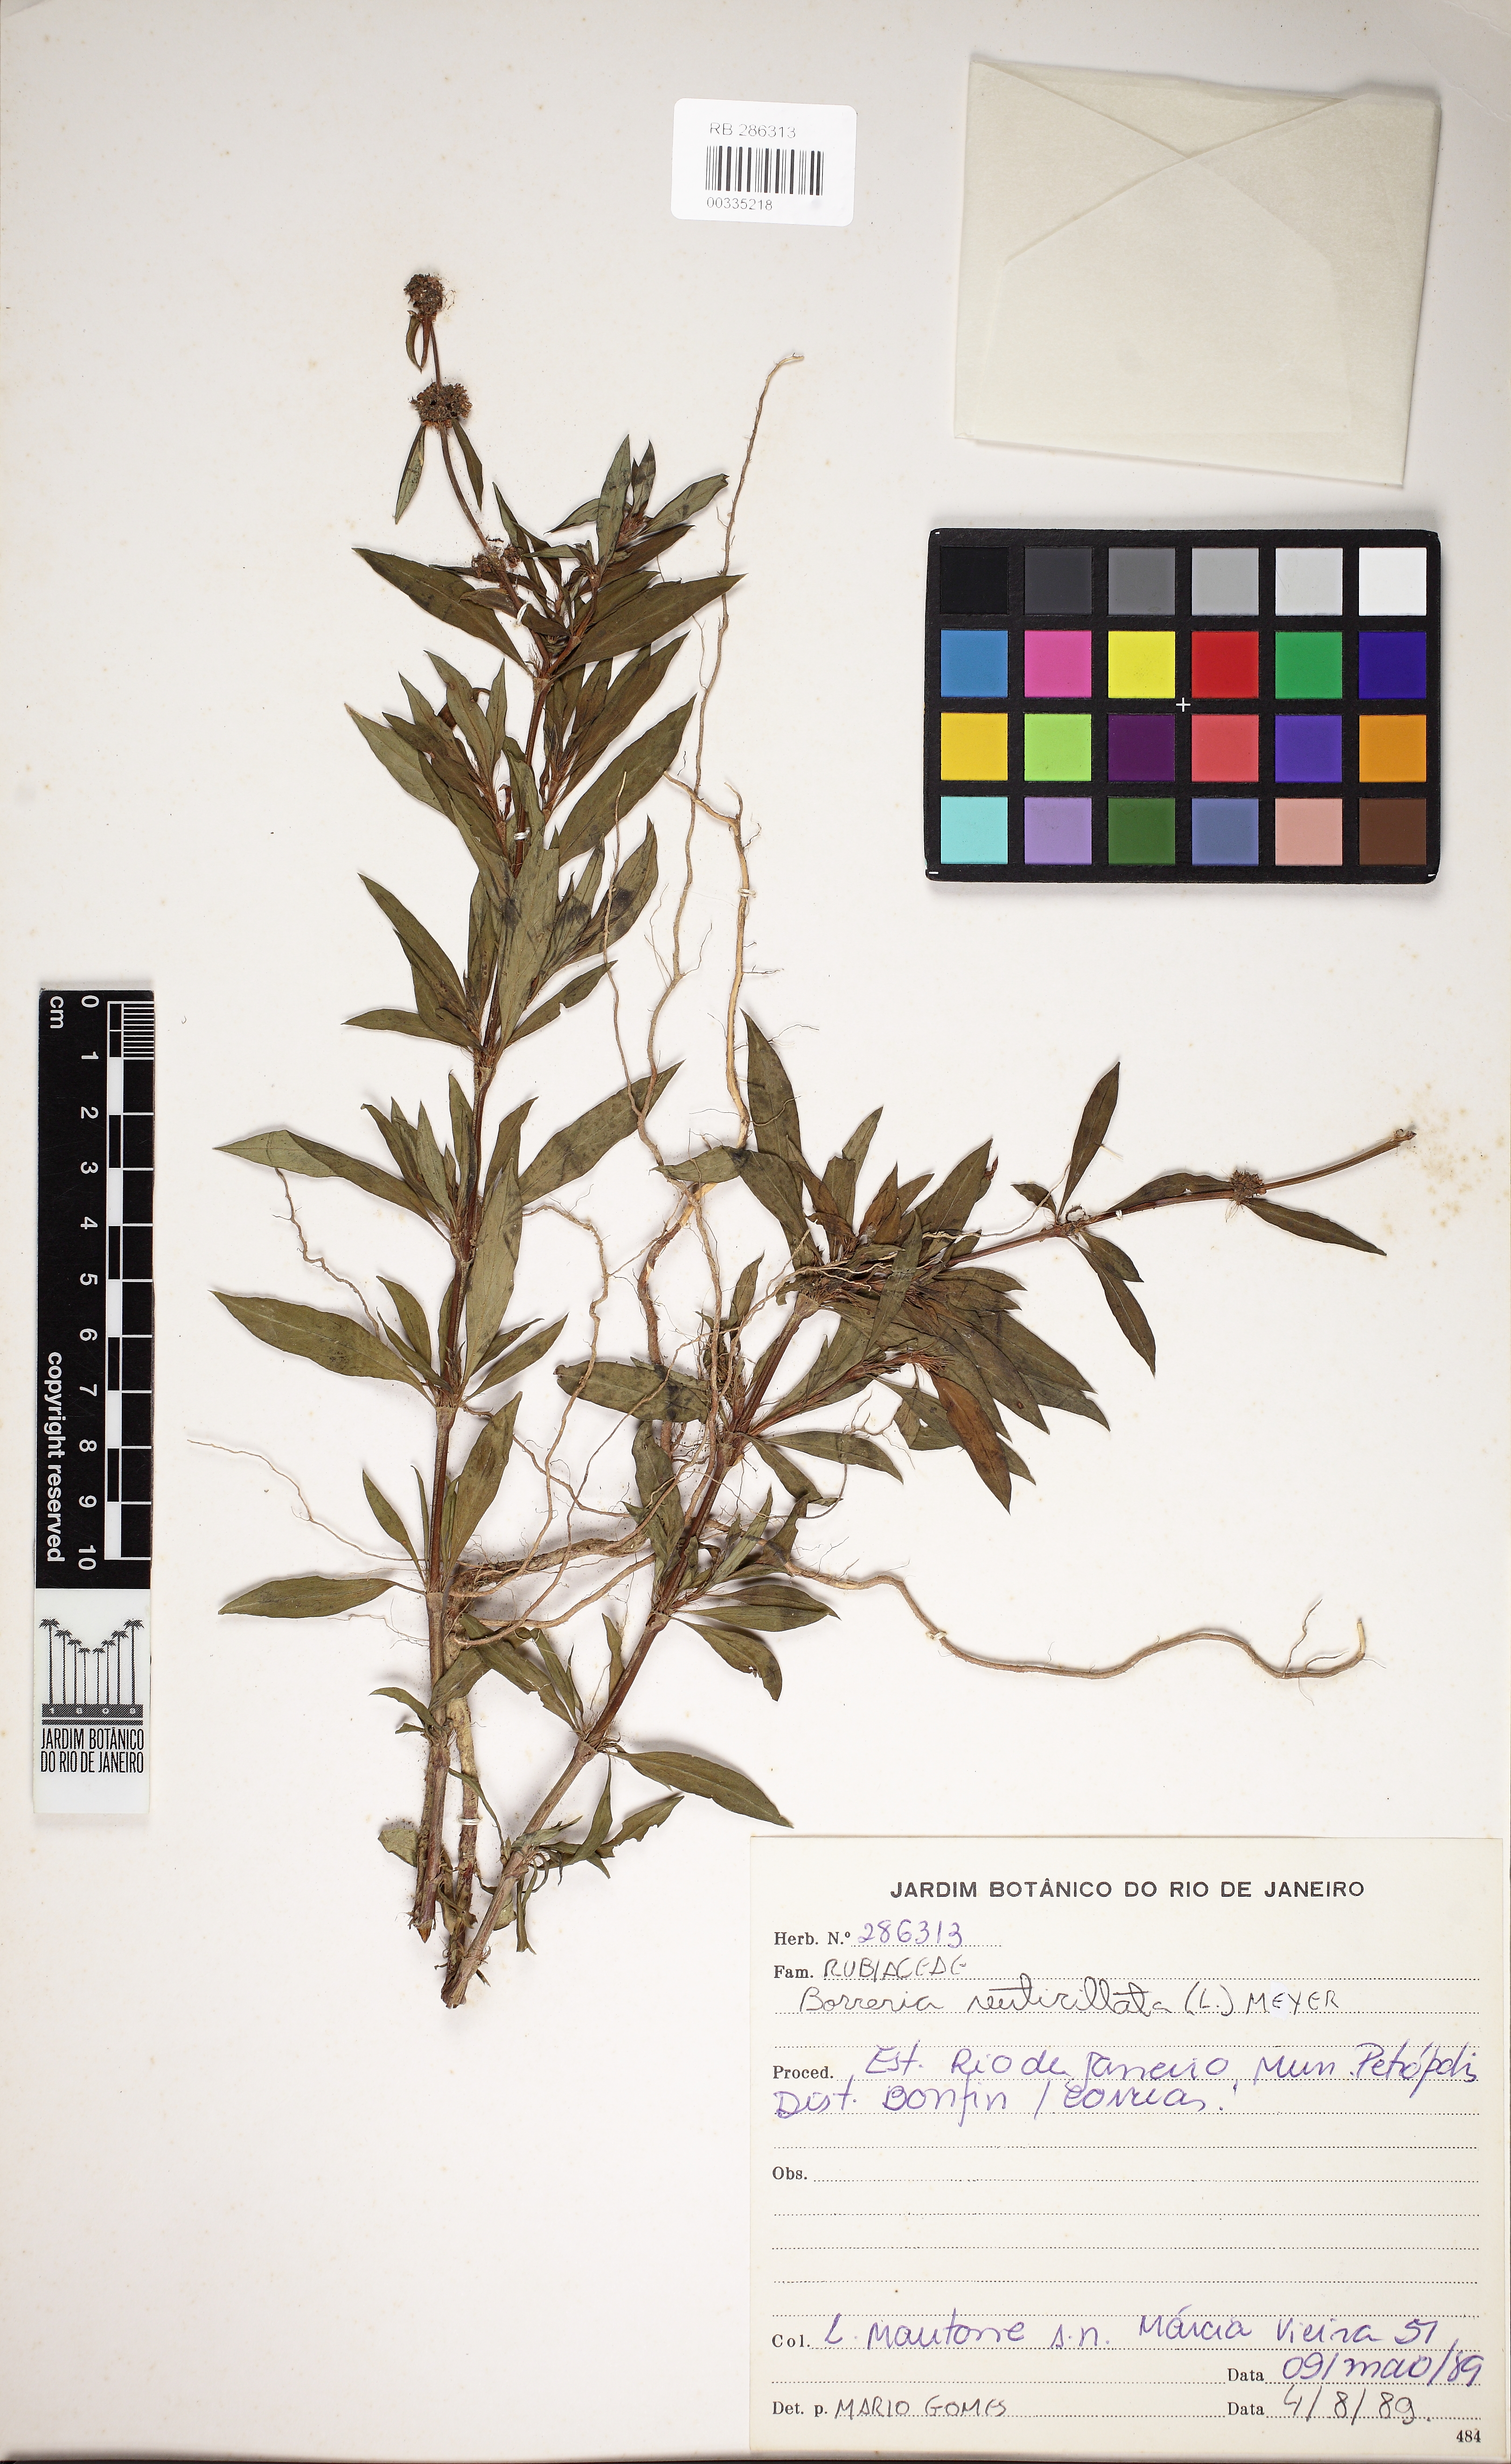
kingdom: Plantae
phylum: Tracheophyta
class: Magnoliopsida
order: Gentianales
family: Rubiaceae
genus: Spermacoce
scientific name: Spermacoce verticillata
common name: Shrubby false buttonweed
